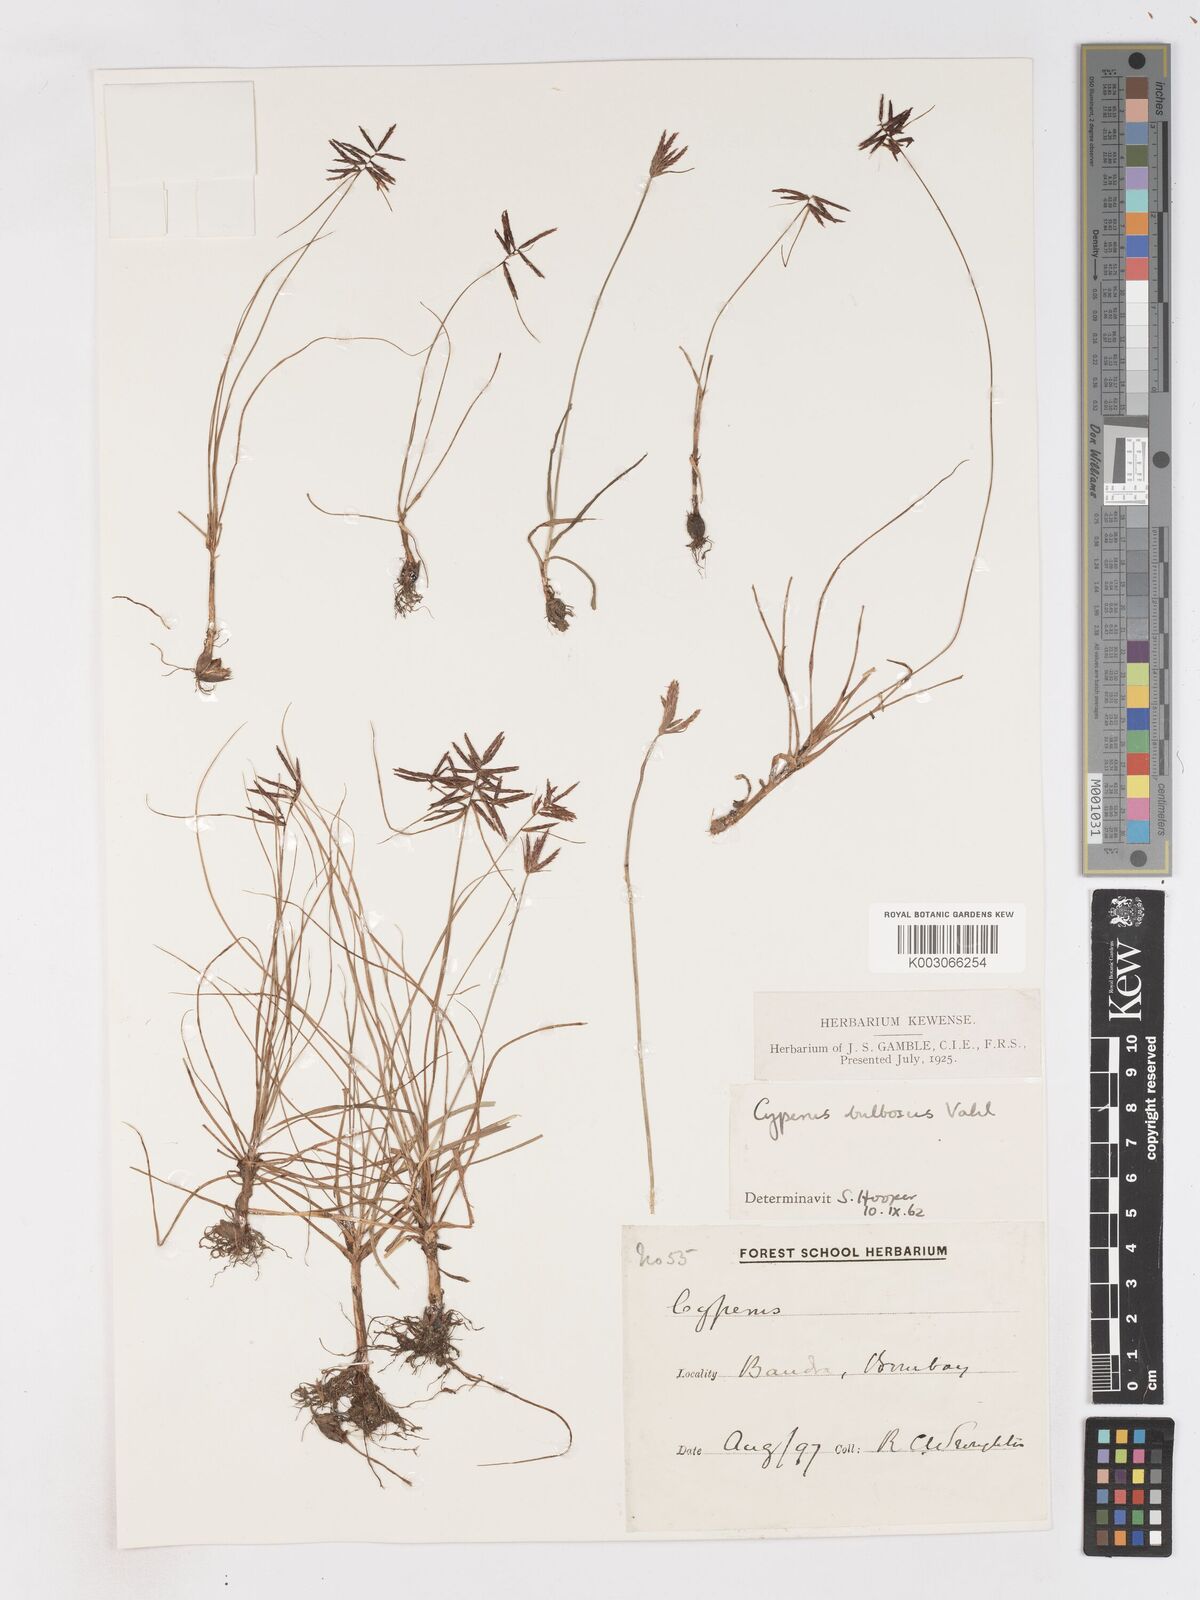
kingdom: Plantae
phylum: Tracheophyta
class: Liliopsida
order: Poales
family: Cyperaceae
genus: Cyperus
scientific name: Cyperus bulbosus
